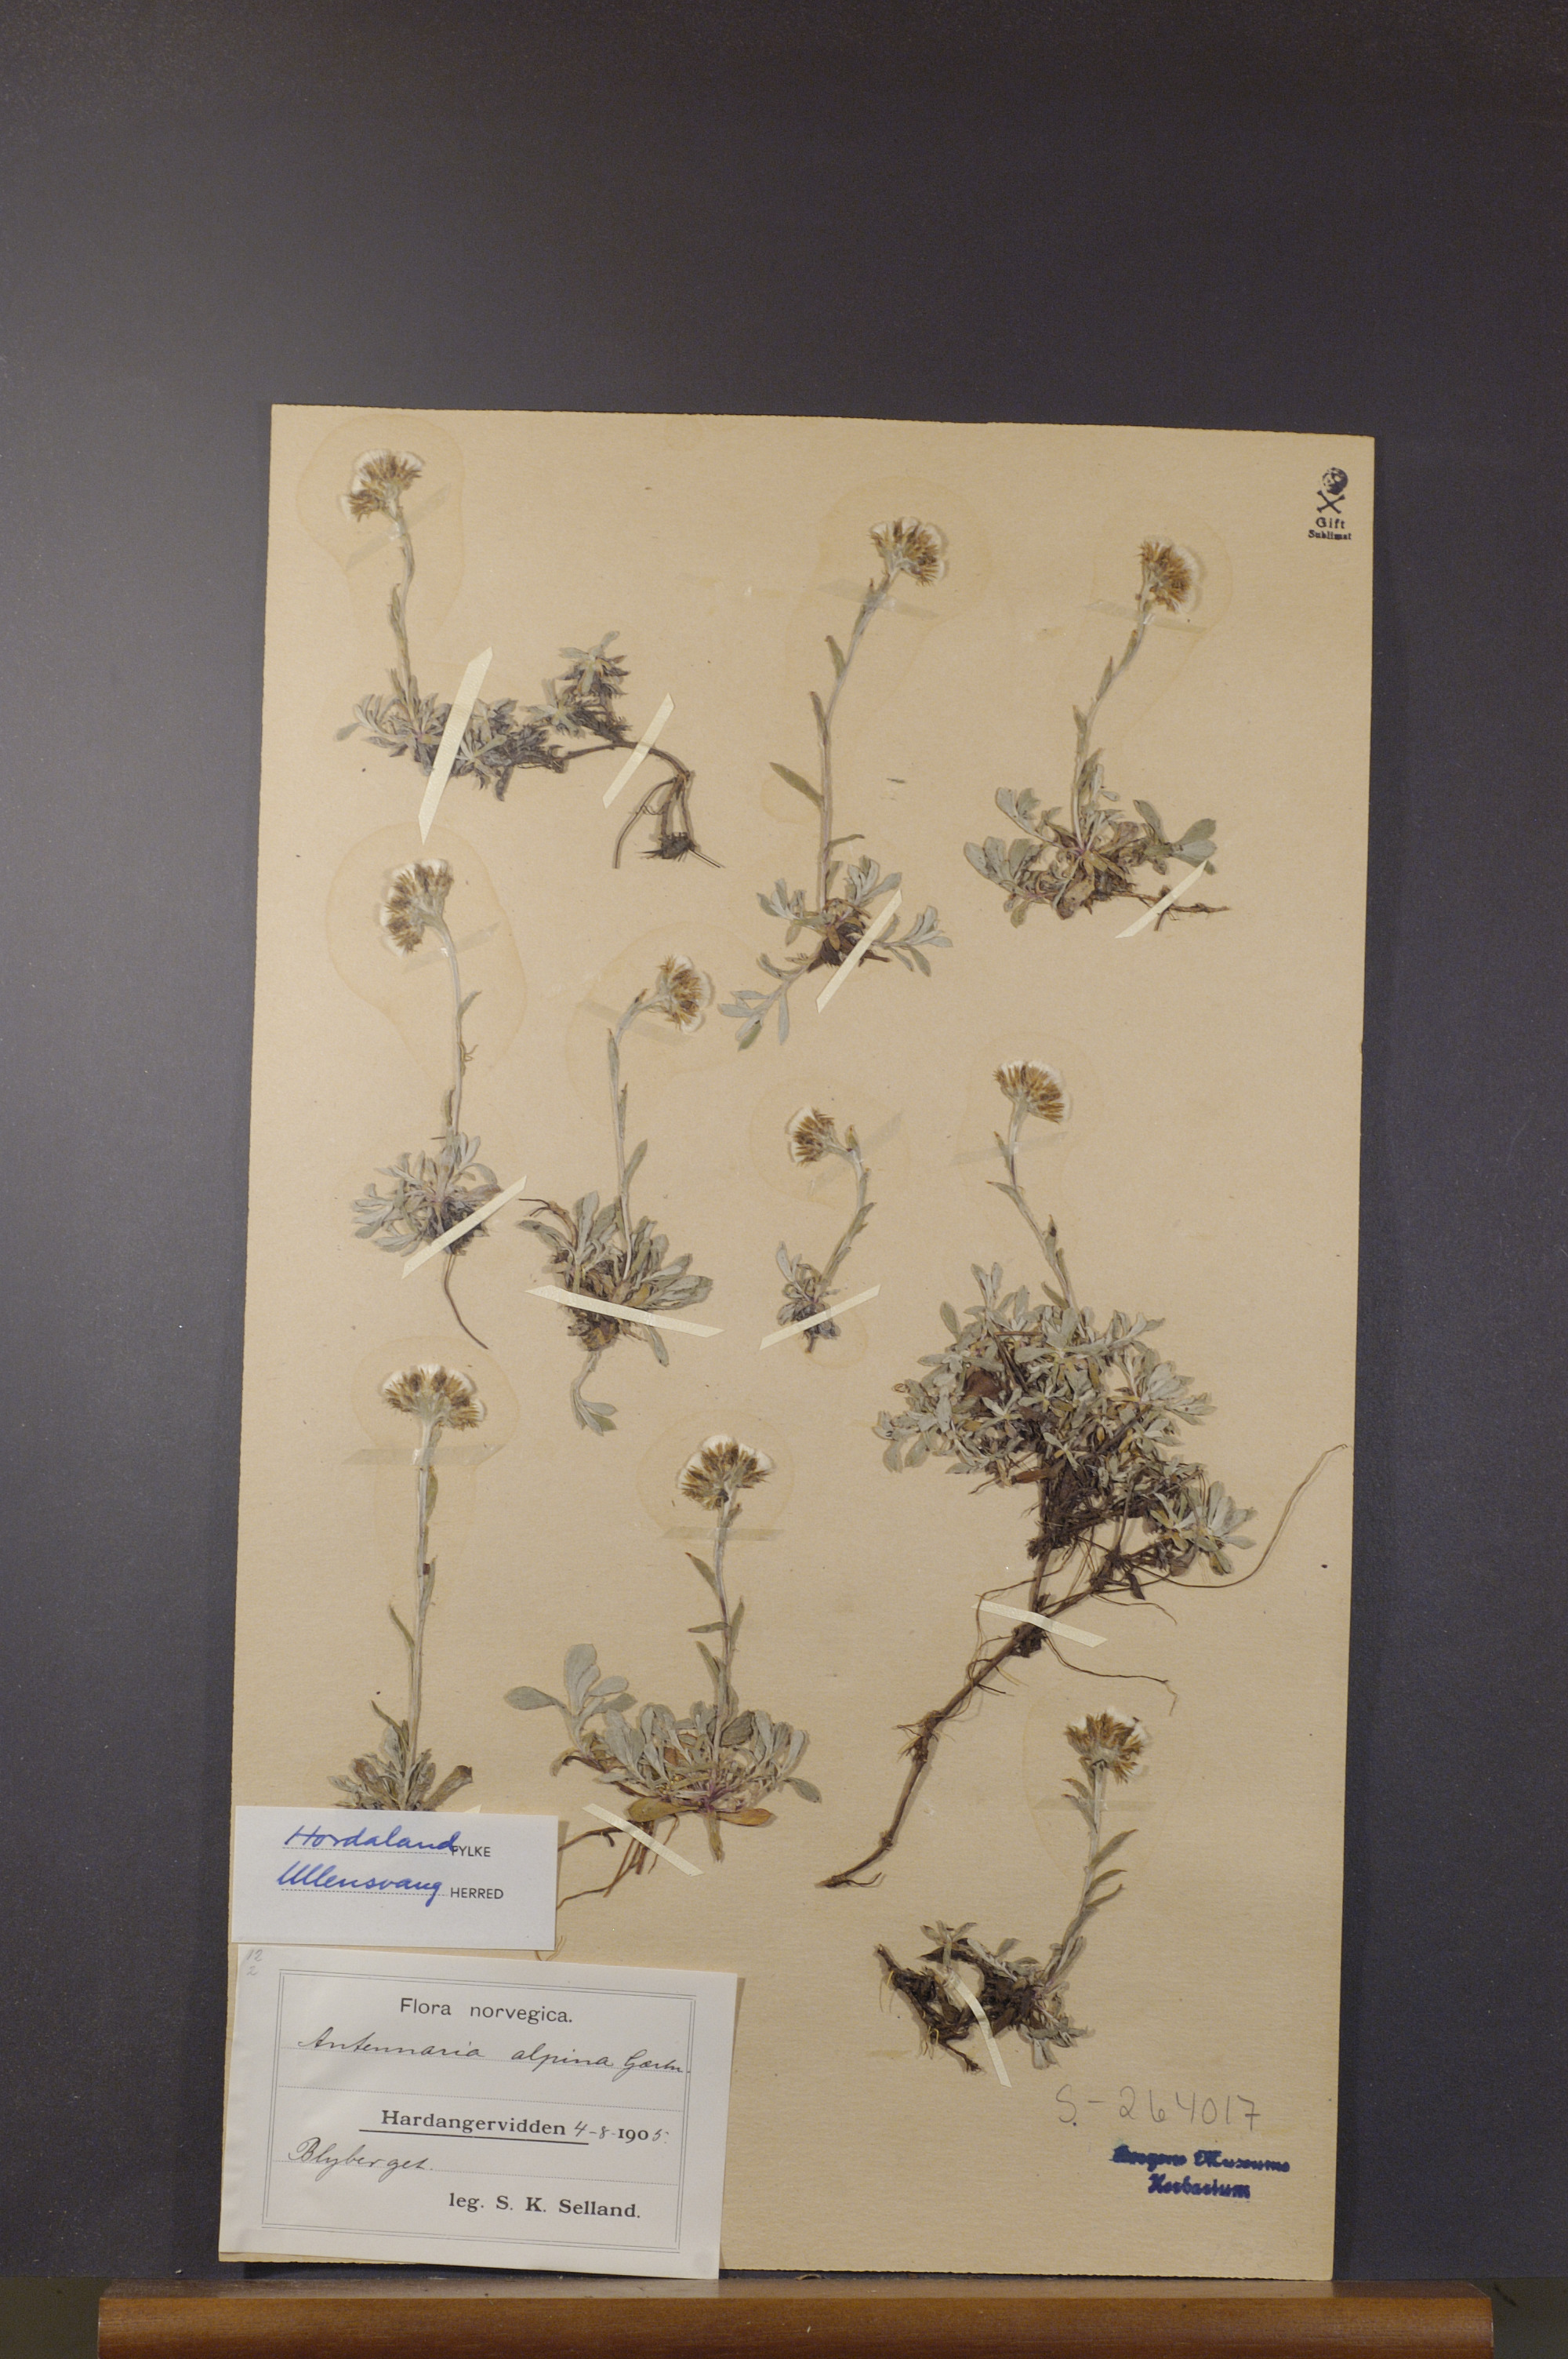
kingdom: Plantae
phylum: Tracheophyta
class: Magnoliopsida
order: Asterales
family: Asteraceae
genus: Antennaria
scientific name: Antennaria alpina
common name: Alpine pussytoes
